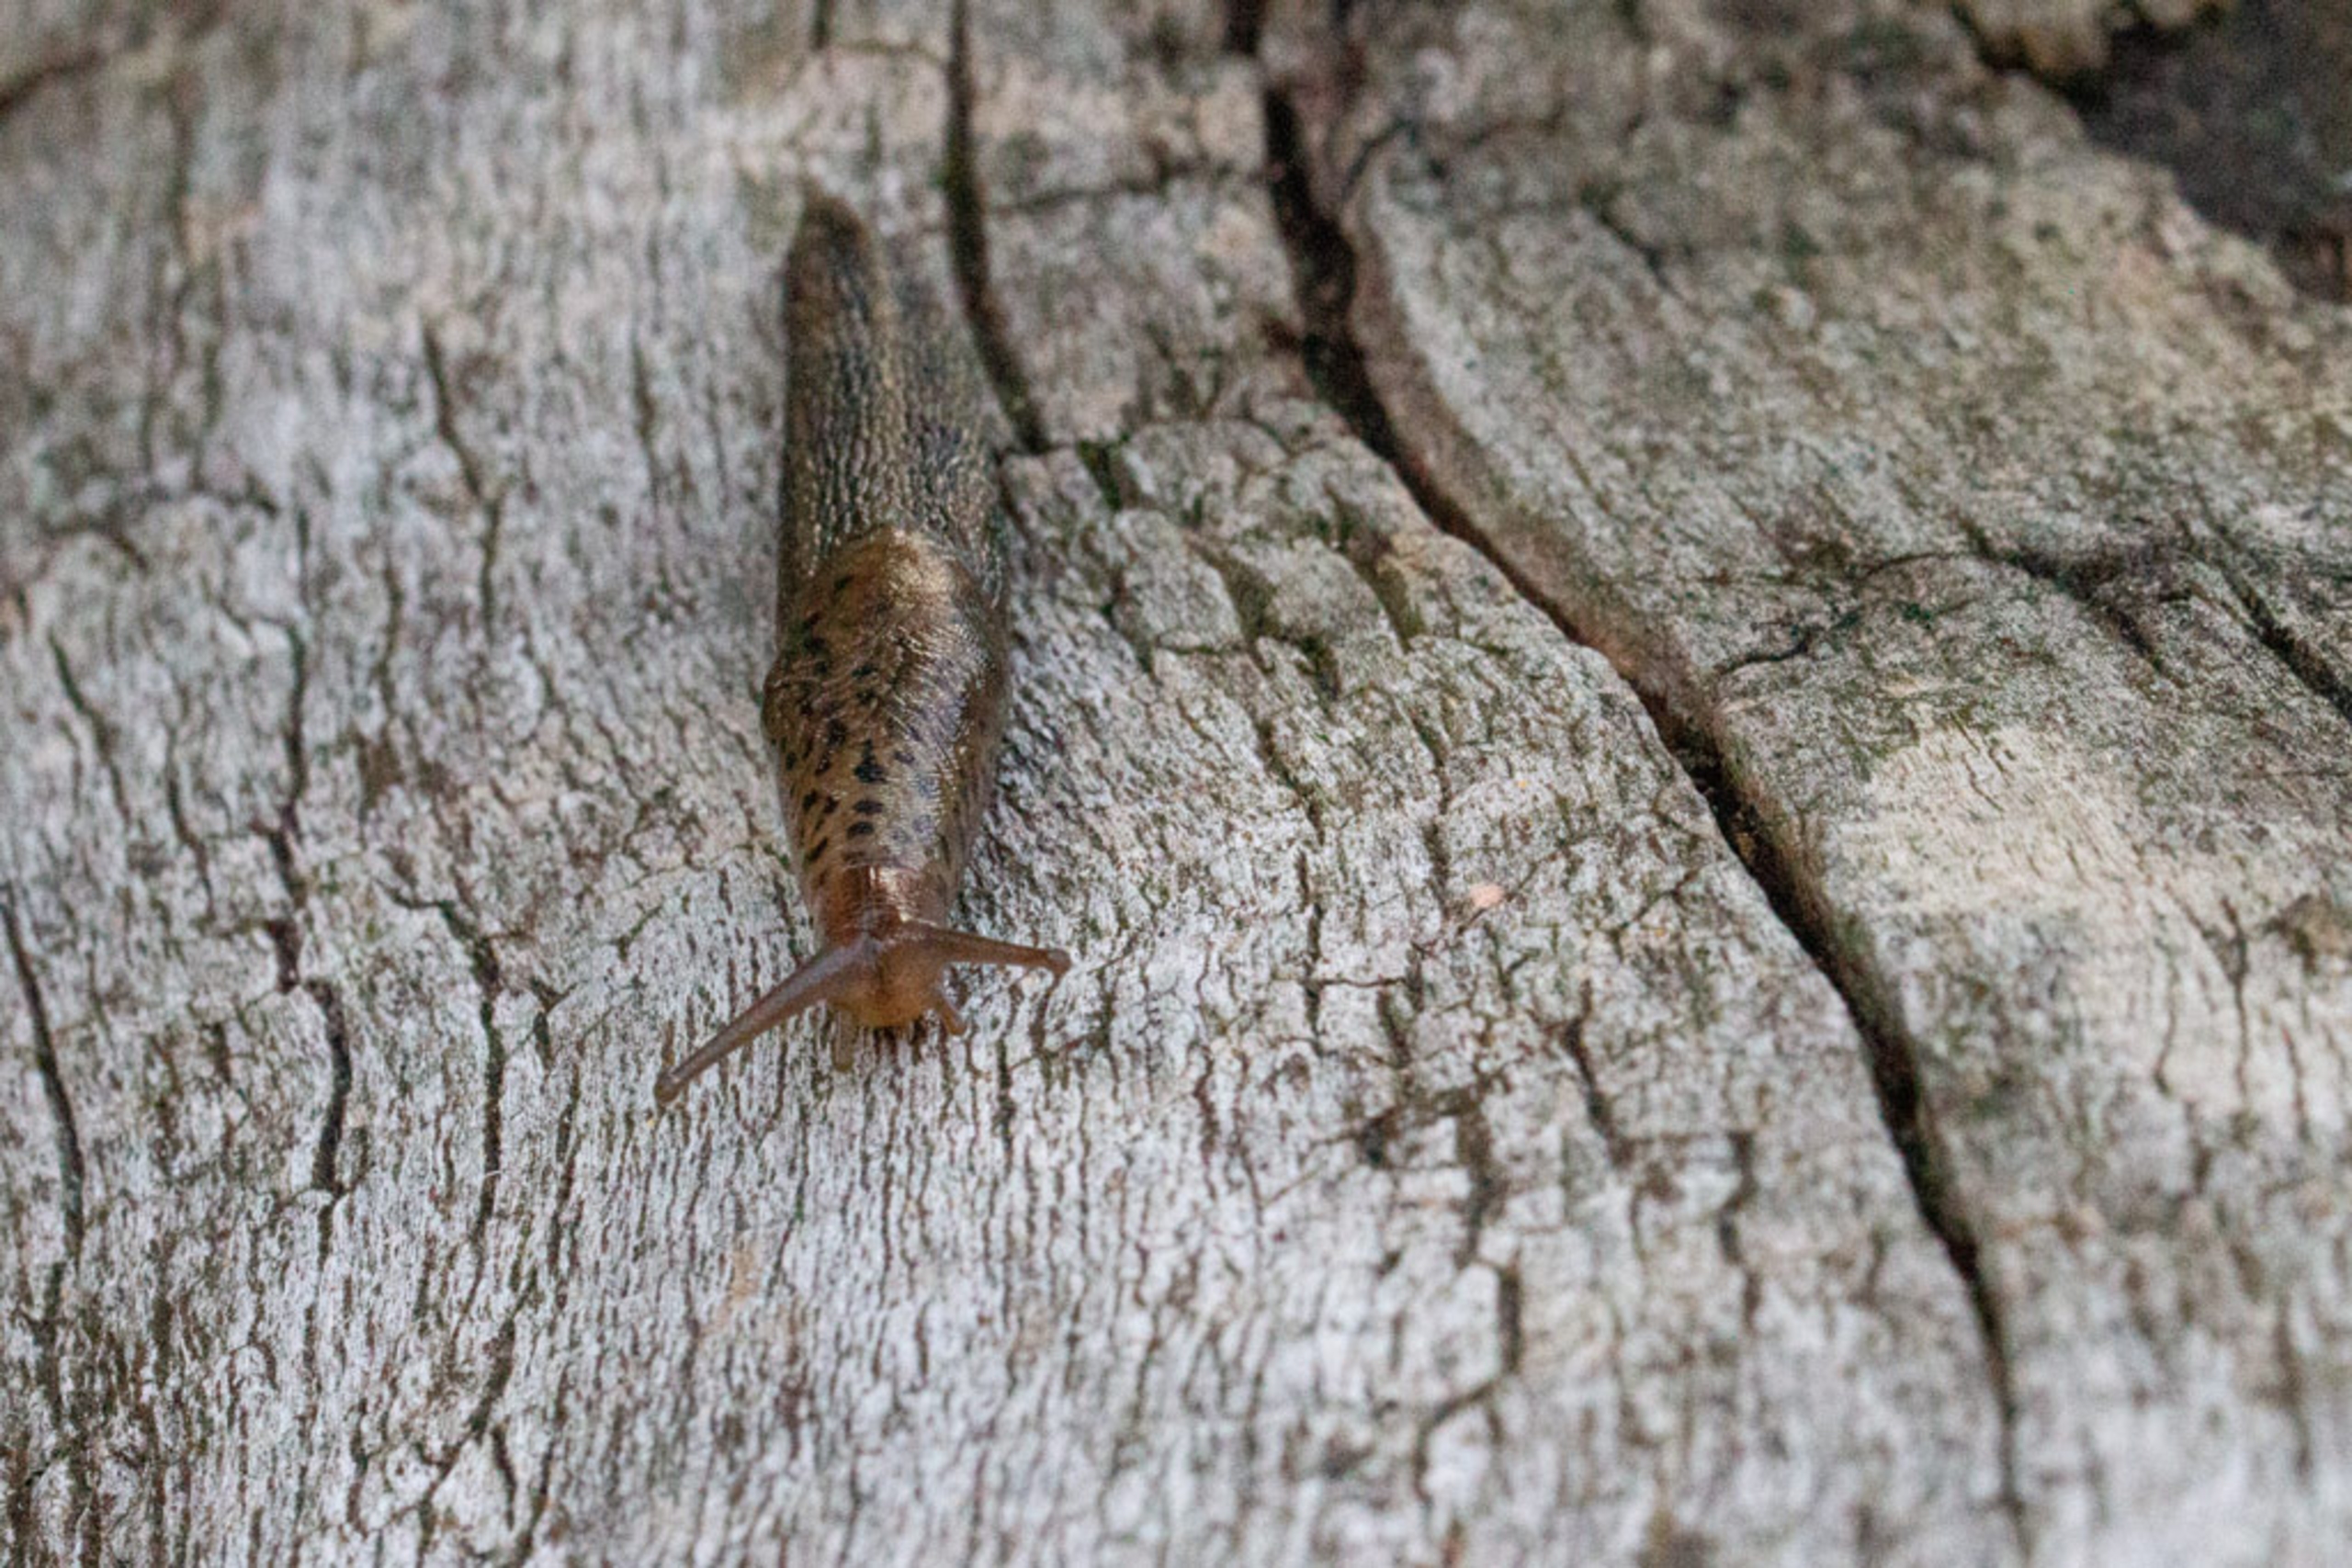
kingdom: Animalia
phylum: Mollusca
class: Gastropoda
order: Stylommatophora
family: Limacidae
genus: Limax
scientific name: Limax maximus
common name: Pantersnegl
